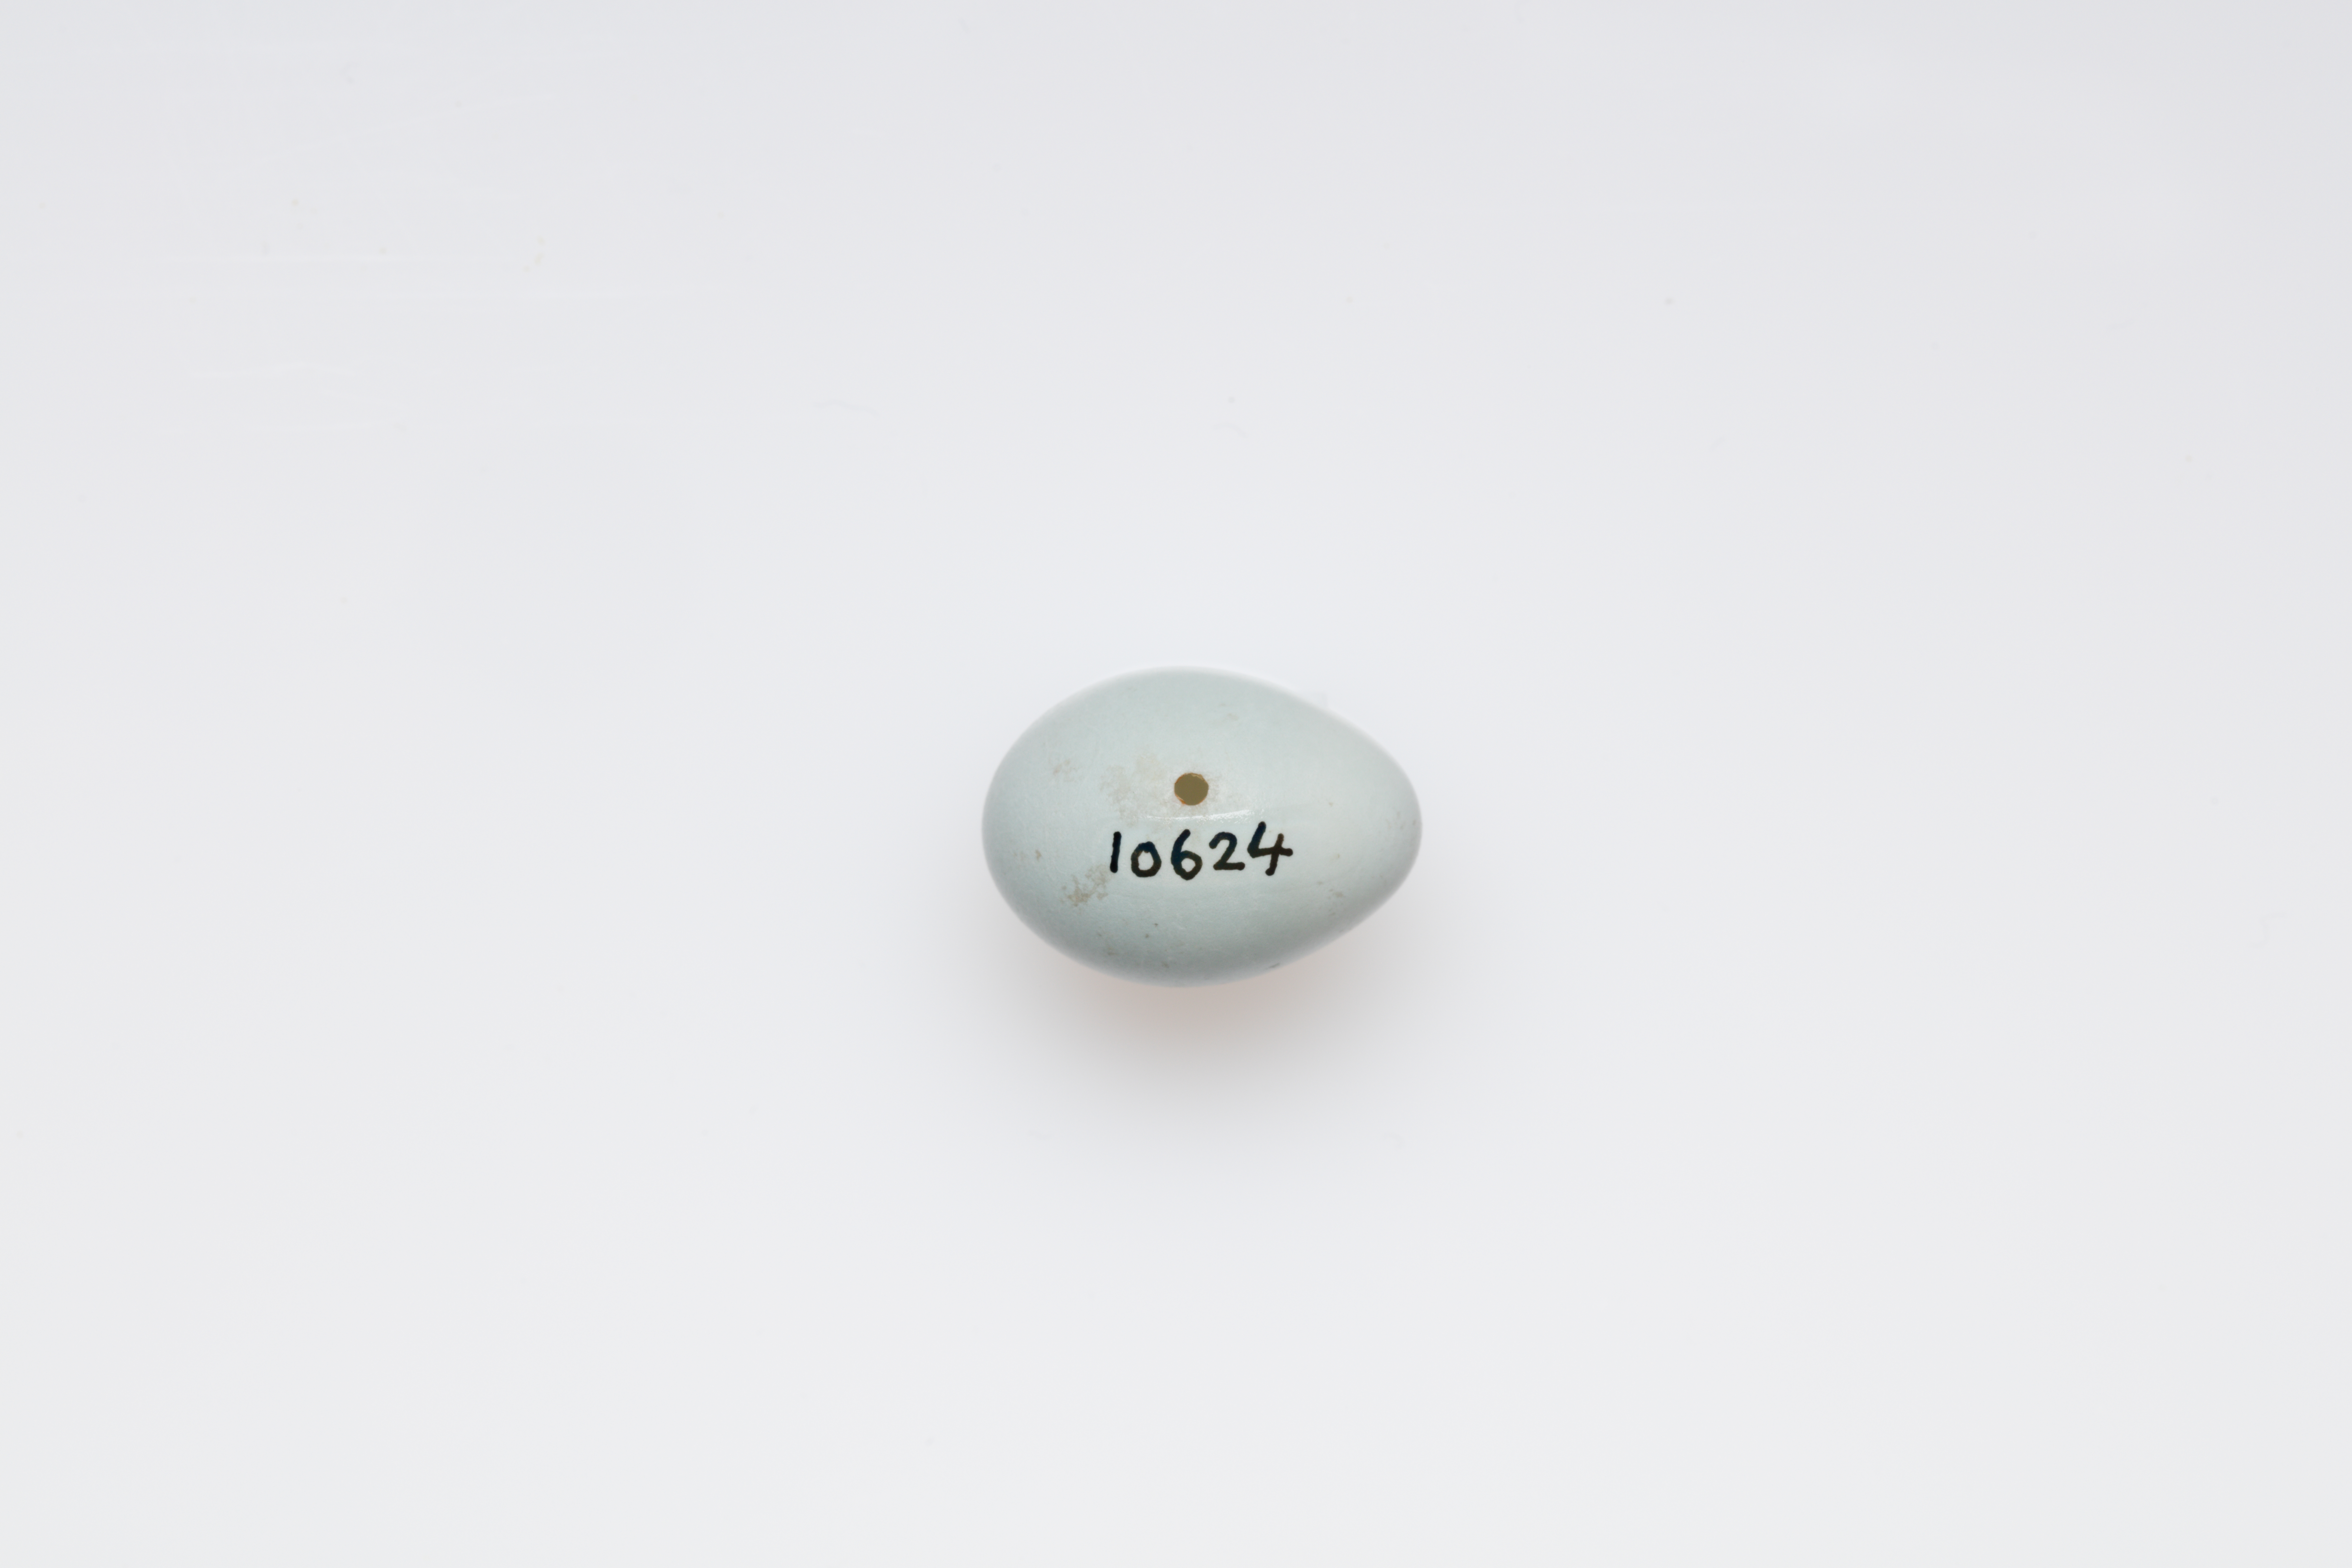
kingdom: Animalia
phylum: Chordata
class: Aves
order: Passeriformes
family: Muscicapidae
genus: Ficedula
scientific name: Ficedula hypoleuca
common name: European pied flycatcher
